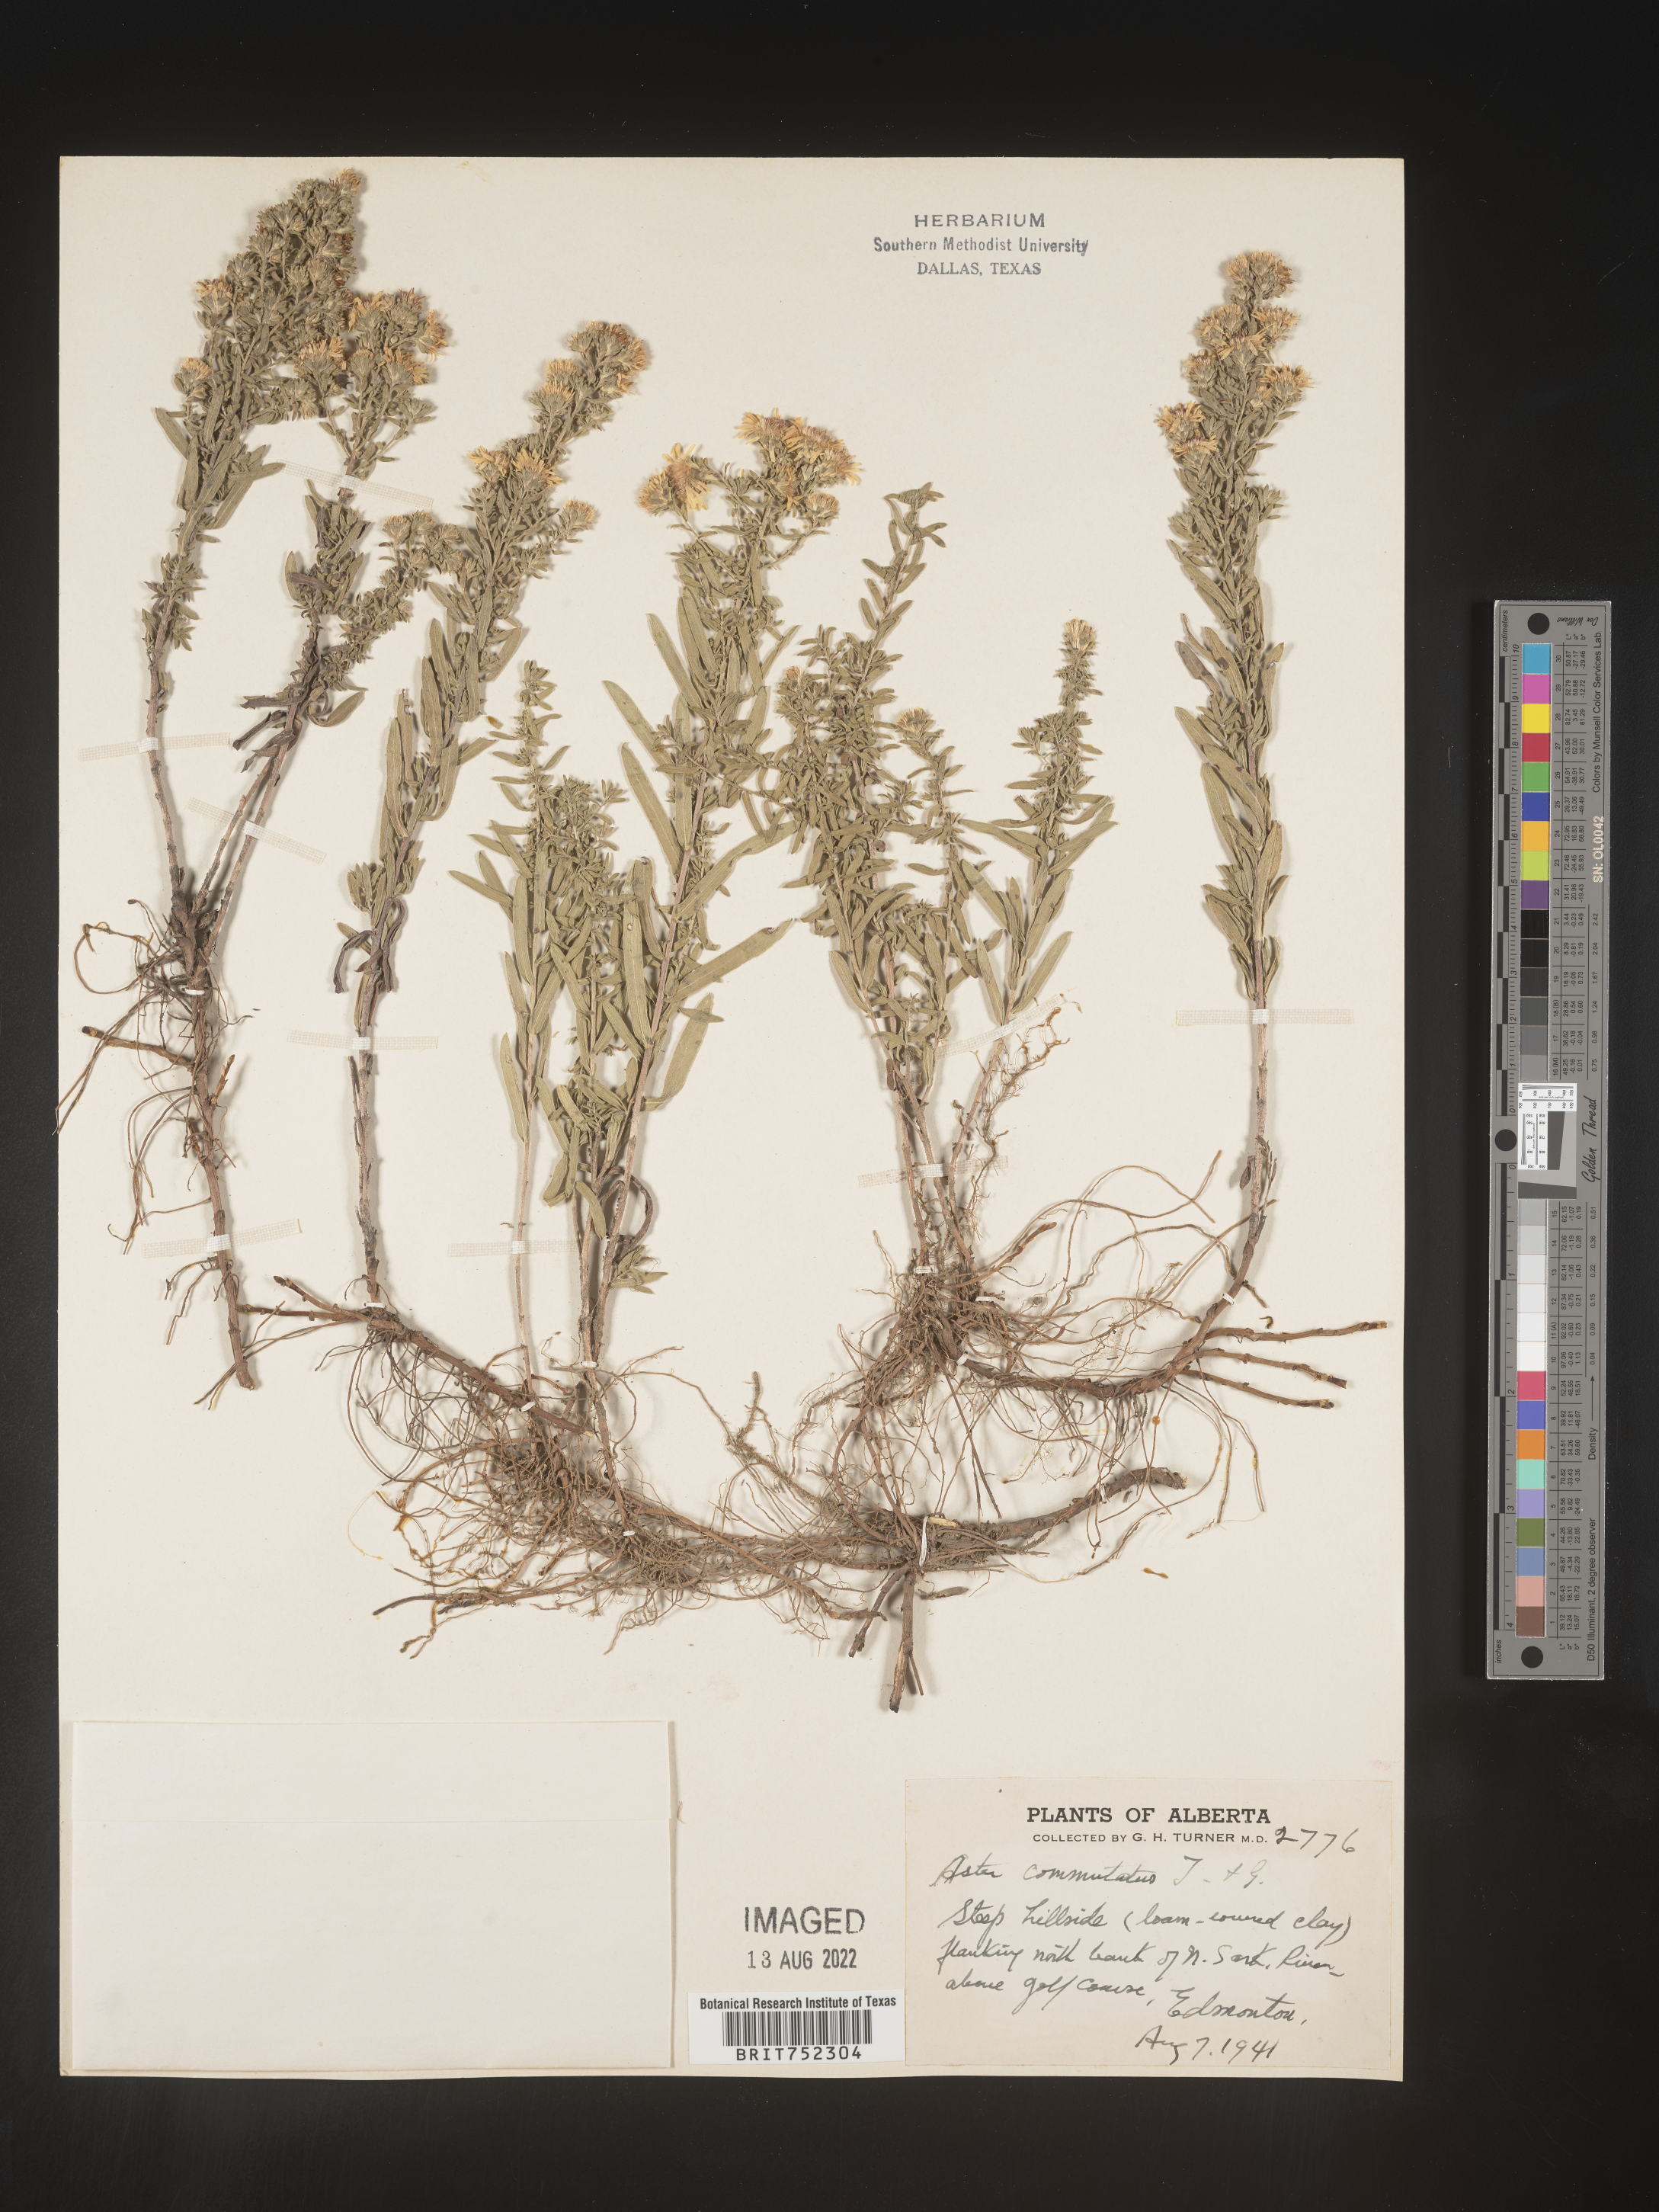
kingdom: Plantae
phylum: Tracheophyta
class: Magnoliopsida
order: Asterales
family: Asteraceae
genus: Symphyotrichum
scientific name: Symphyotrichum falcatum
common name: Creeping white prairie aster
